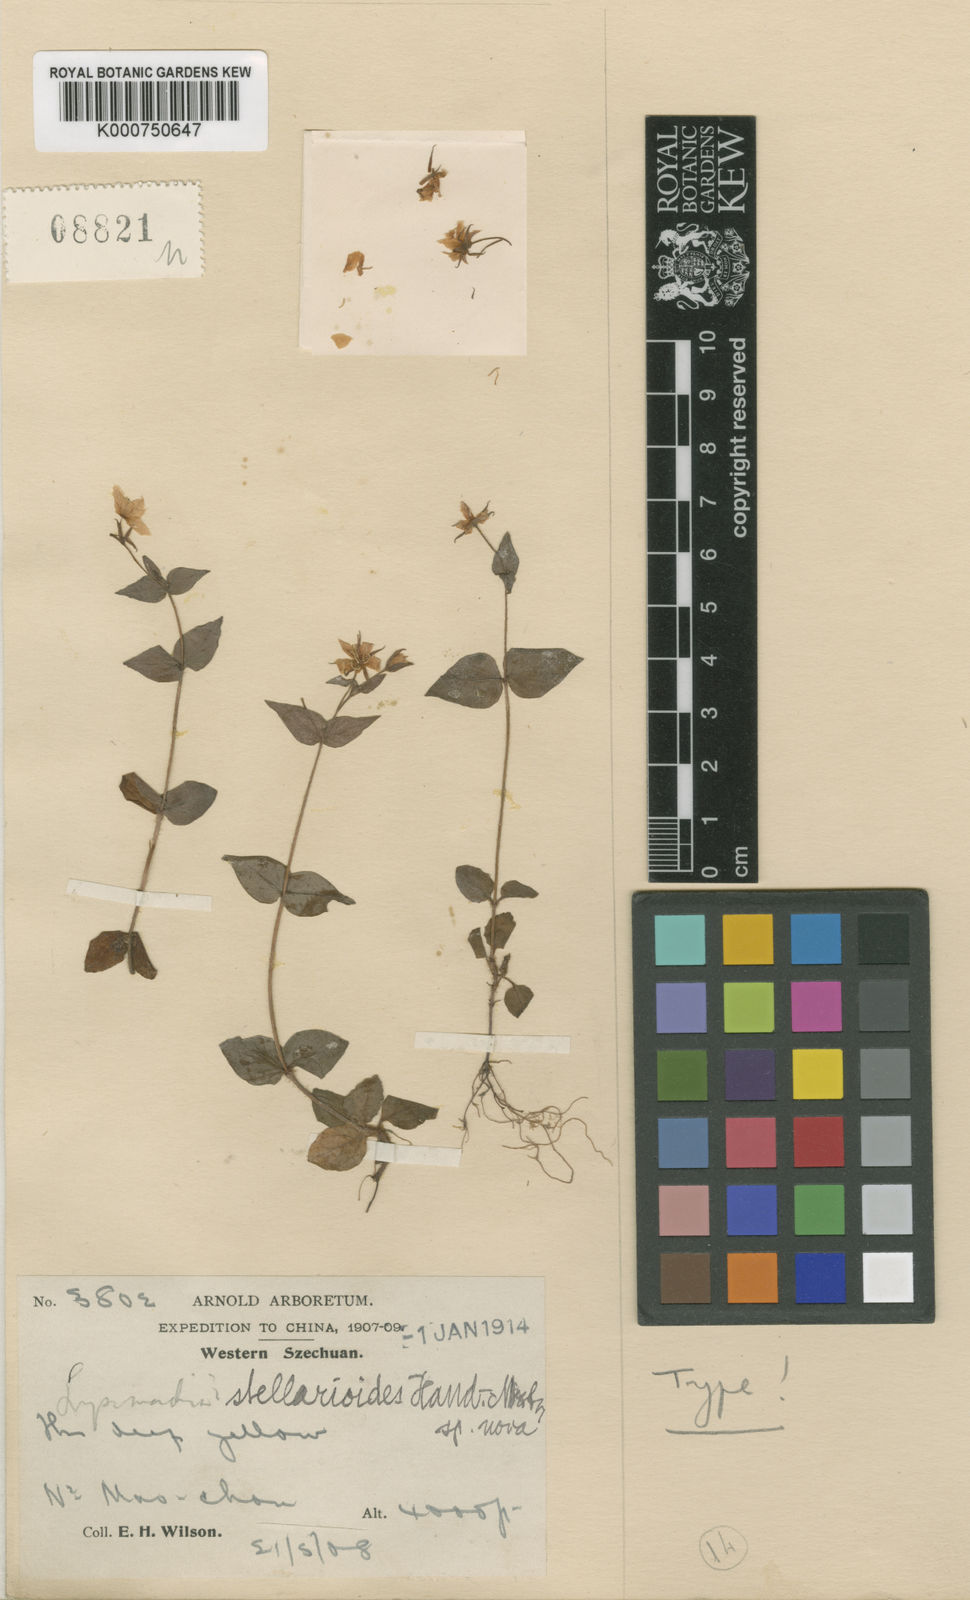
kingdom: Plantae
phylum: Tracheophyta
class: Magnoliopsida
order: Ericales
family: Primulaceae
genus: Lysimachia
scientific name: Lysimachia stellarioides
